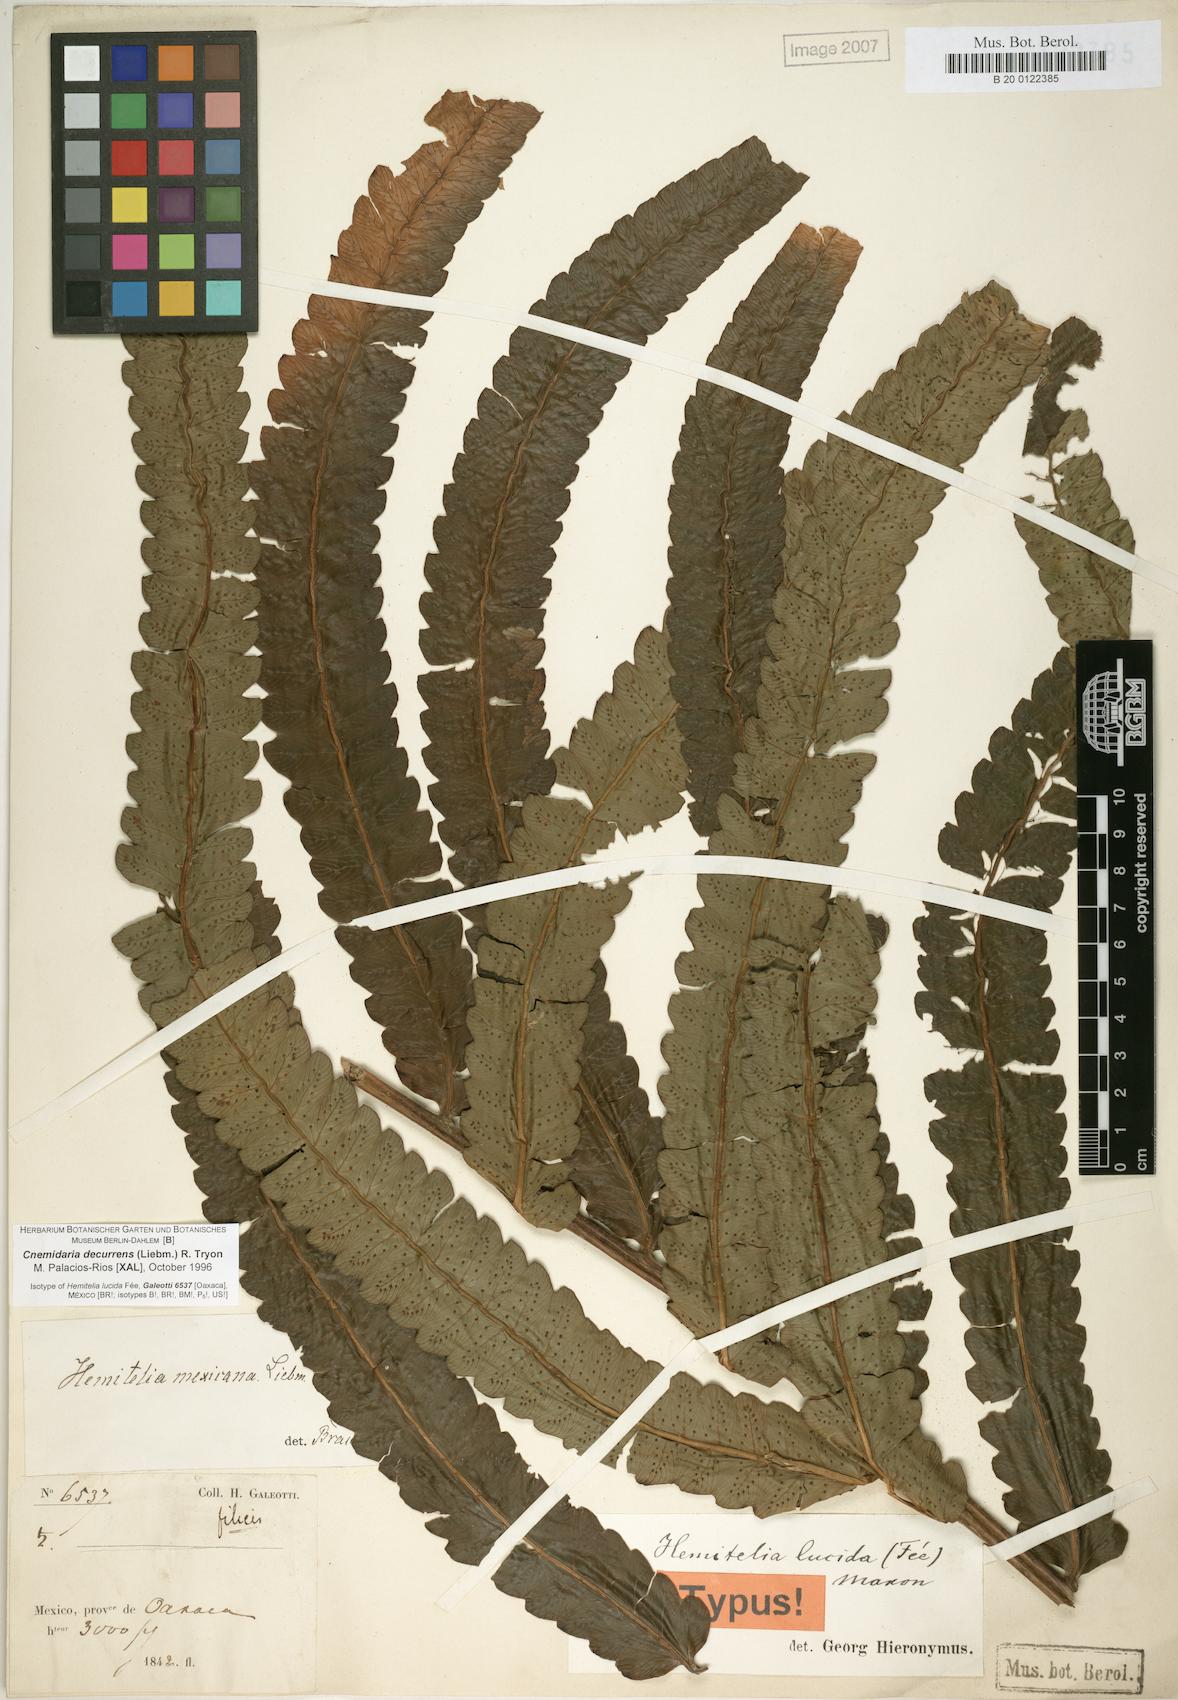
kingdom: Plantae
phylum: Tracheophyta
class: Polypodiopsida
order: Cyatheales
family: Cyatheaceae
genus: Cyathea
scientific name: Cyathea liebmannii
